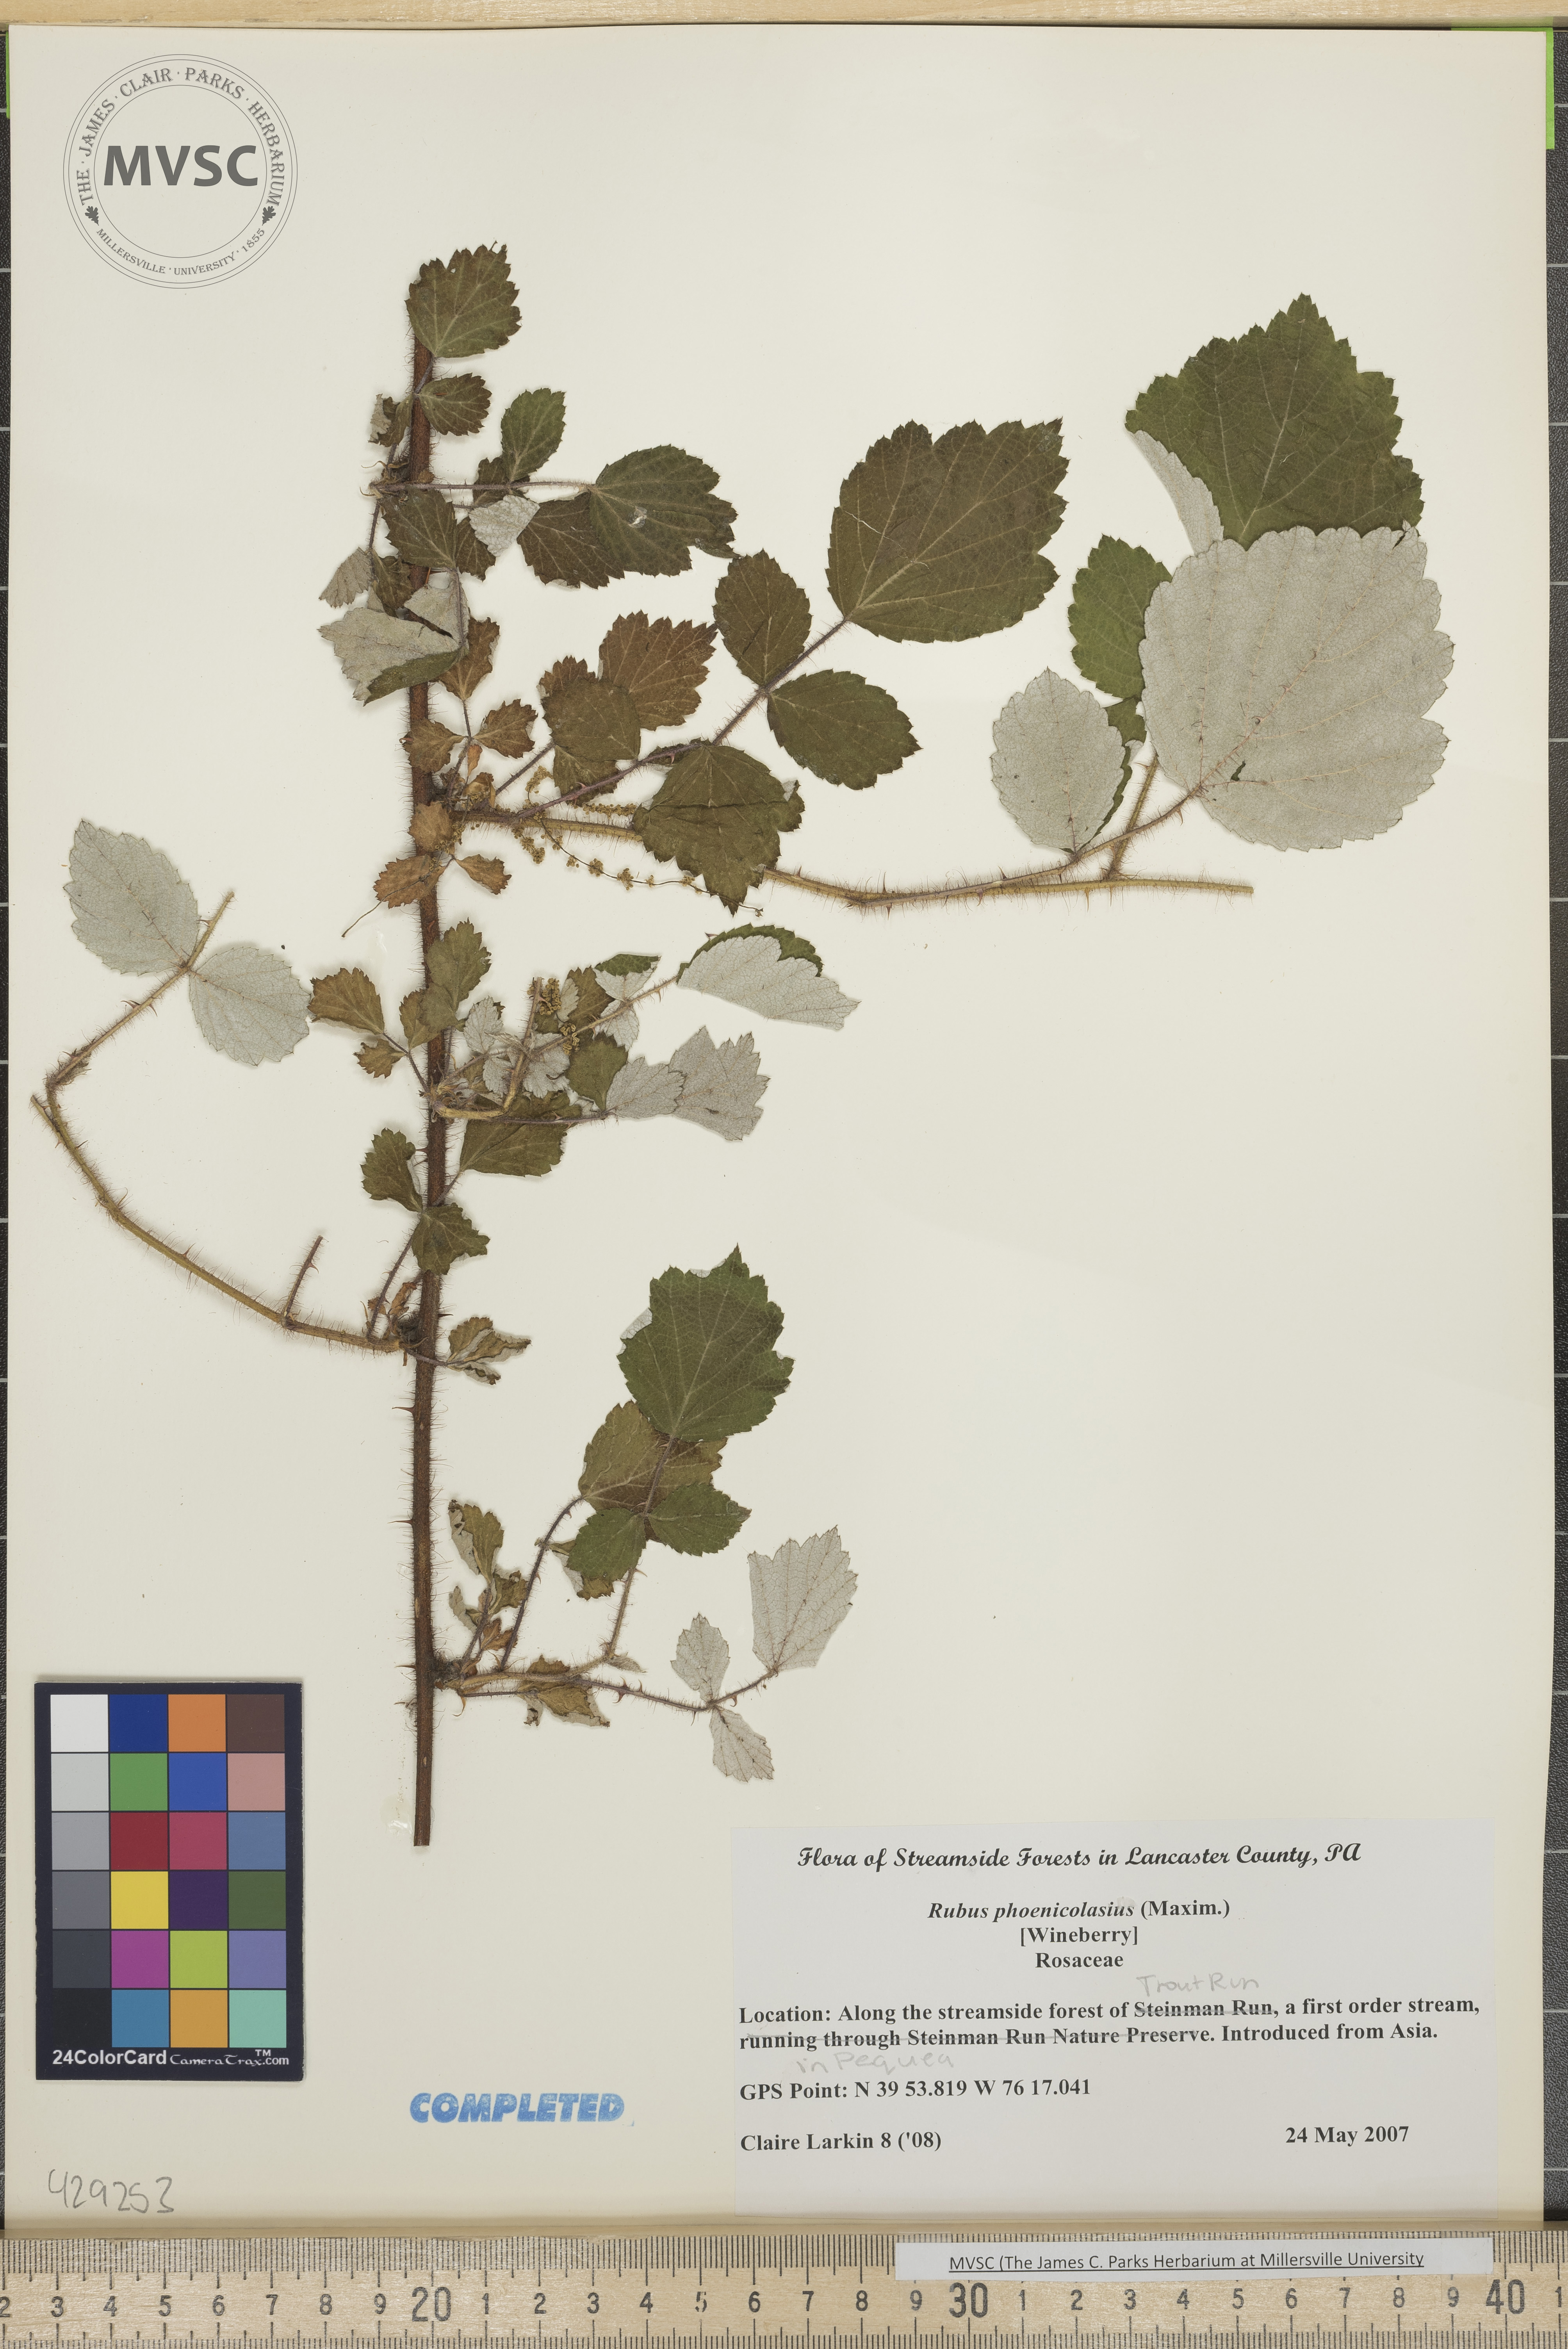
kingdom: Plantae
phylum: Tracheophyta
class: Magnoliopsida
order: Rosales
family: Rosaceae
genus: Rubus
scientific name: Rubus phoenicolasius
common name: Wineberry
